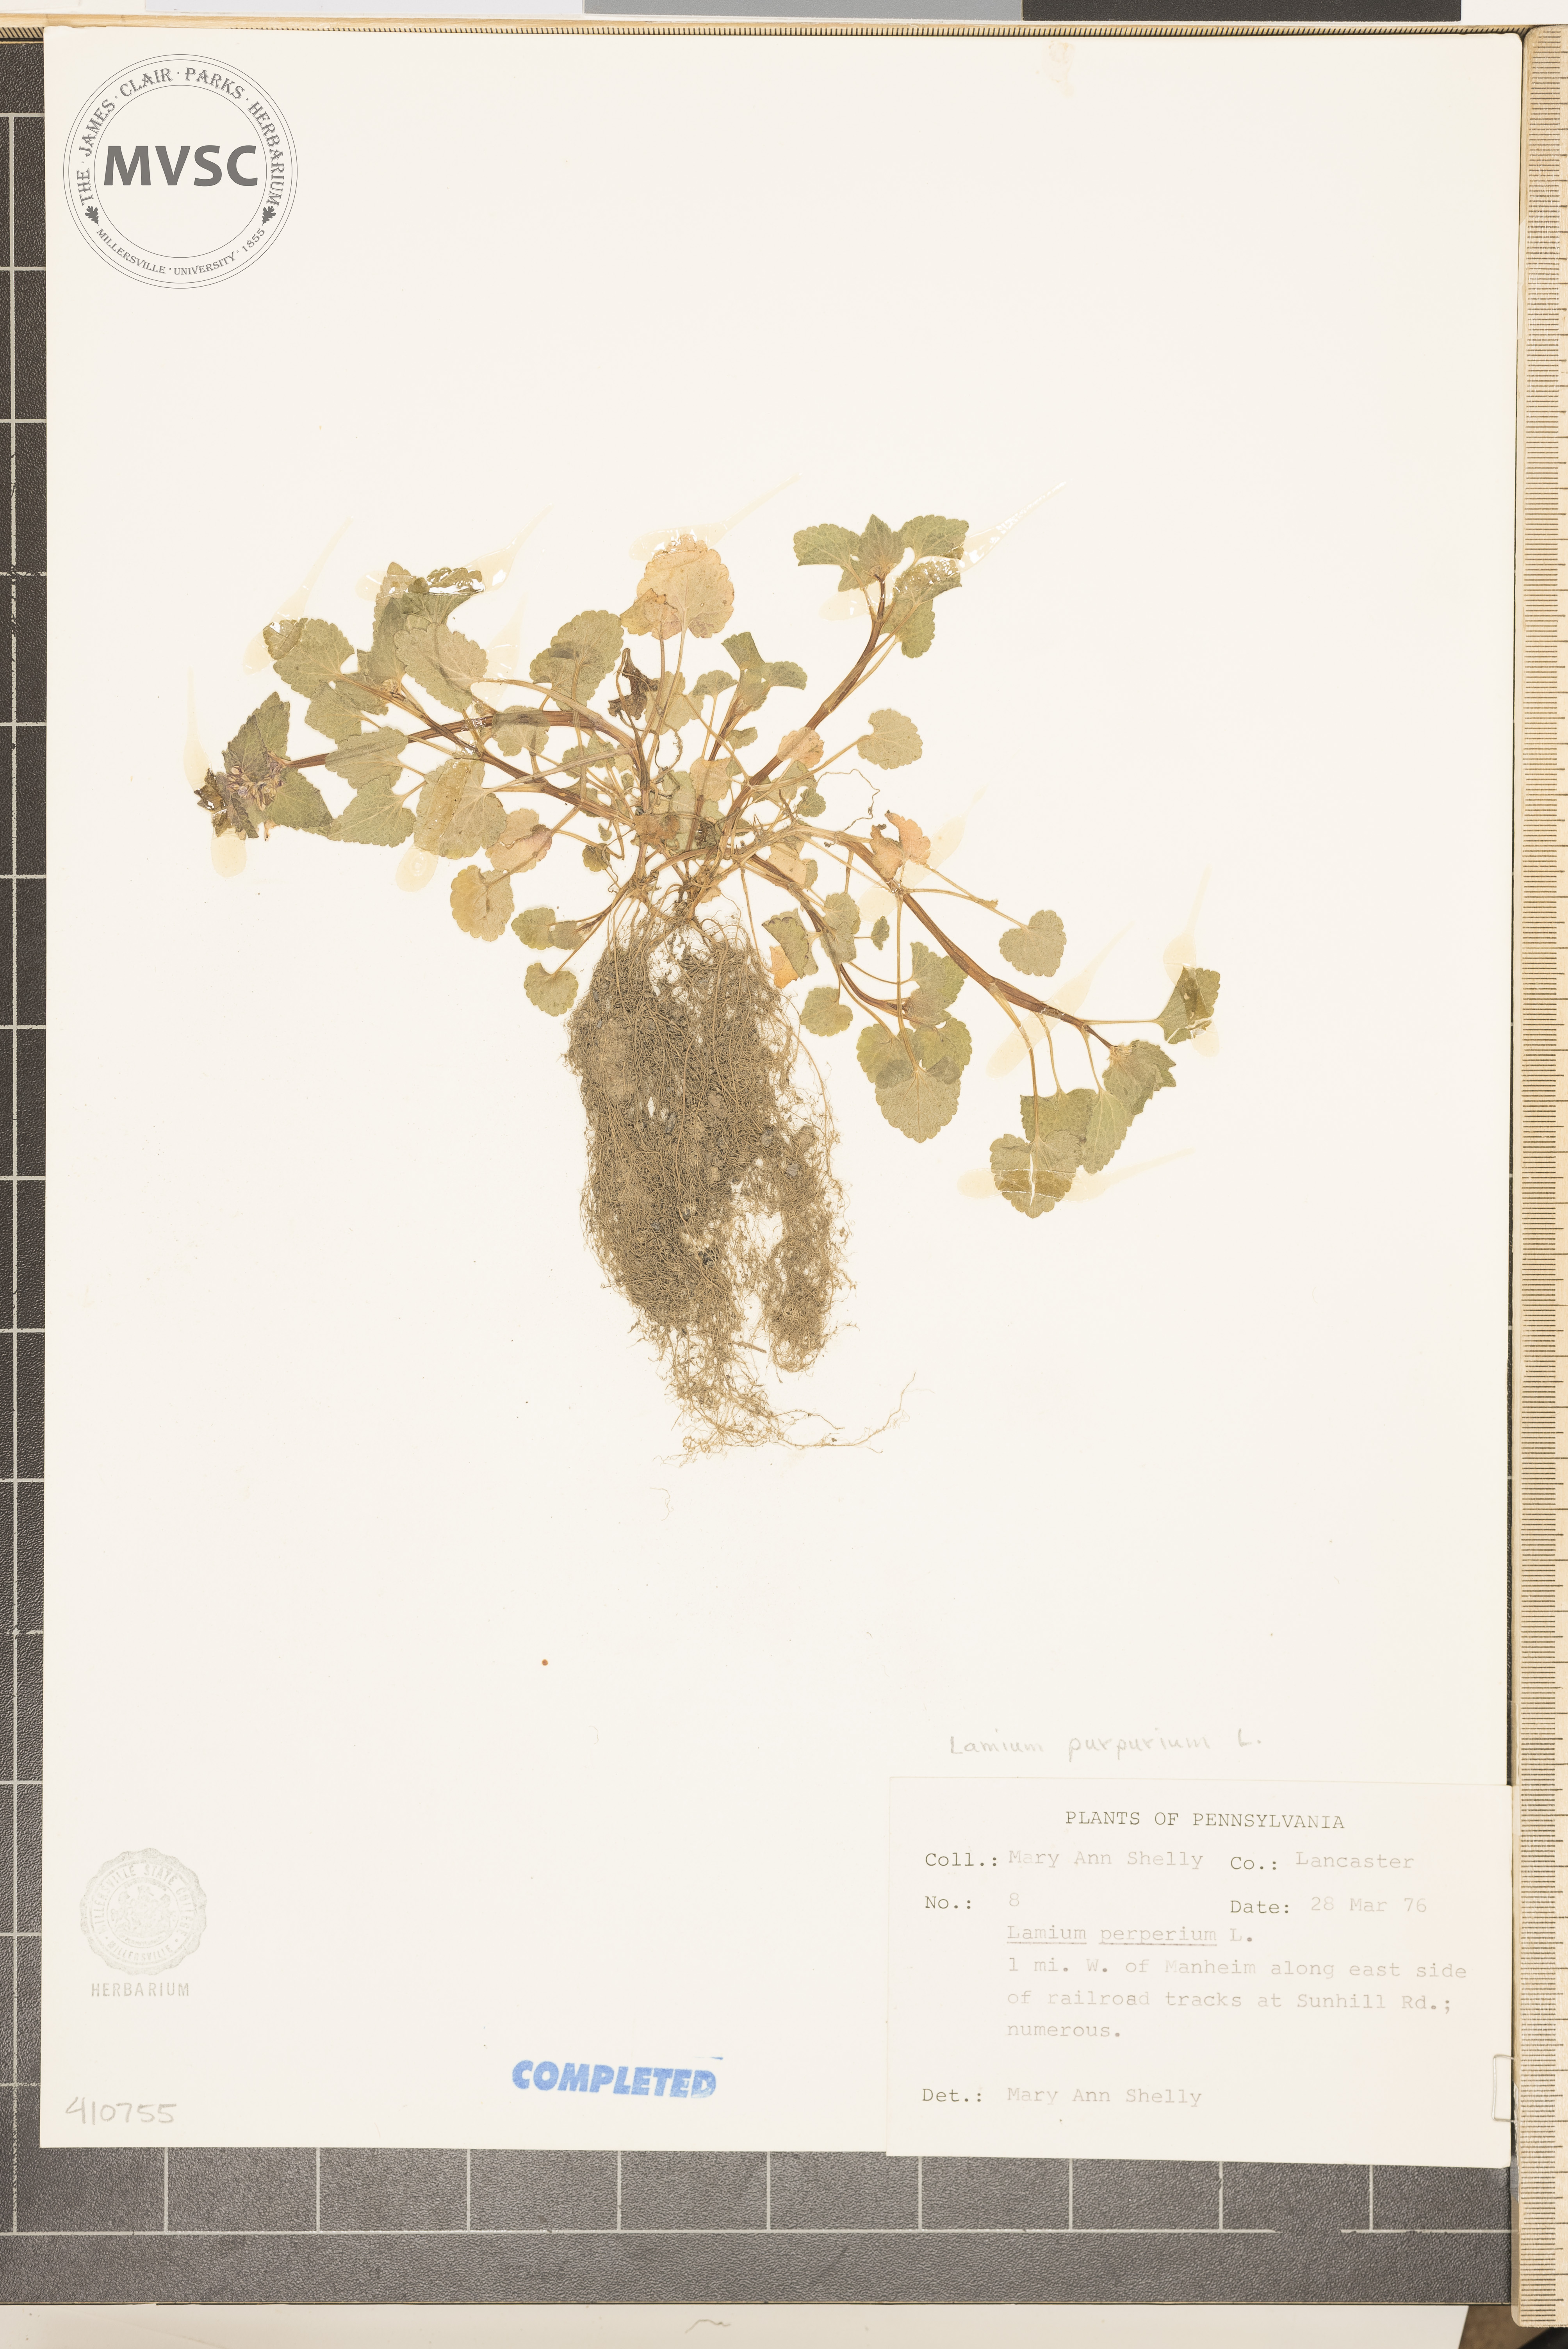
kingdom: Plantae
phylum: Tracheophyta
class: Magnoliopsida
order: Lamiales
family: Lamiaceae
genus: Lamium
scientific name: Lamium purpureum
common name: purple dead-nettle
